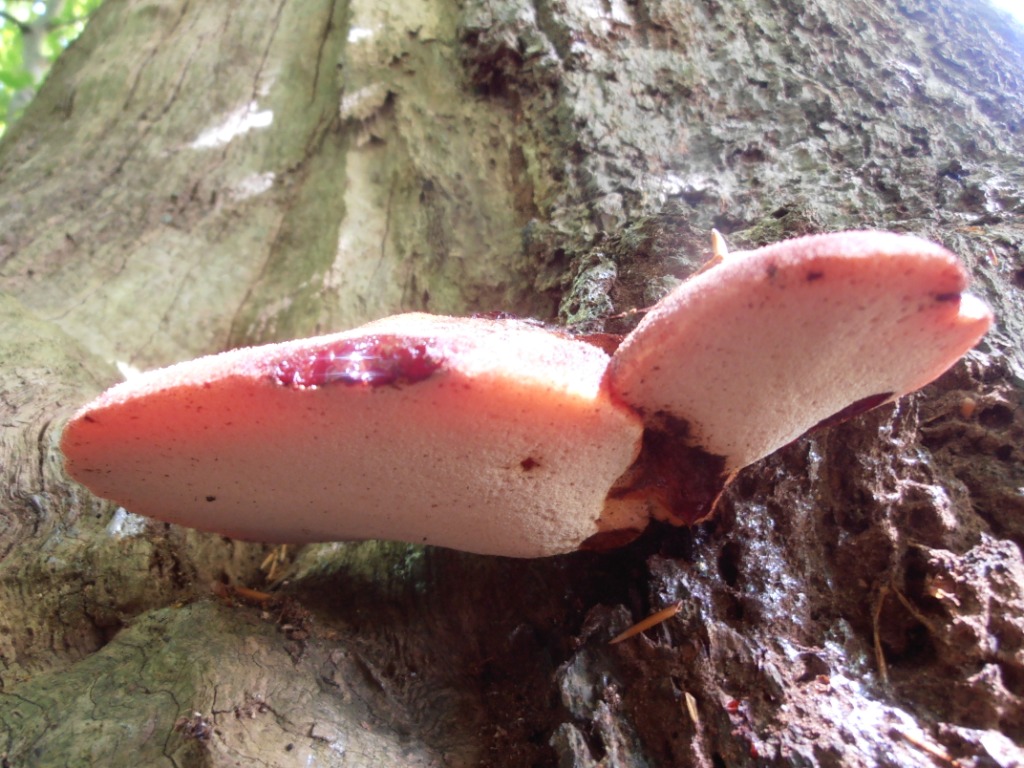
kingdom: Fungi
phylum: Basidiomycota
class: Agaricomycetes
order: Agaricales
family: Fistulinaceae
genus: Fistulina
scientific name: Fistulina hepatica
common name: oksetunge
